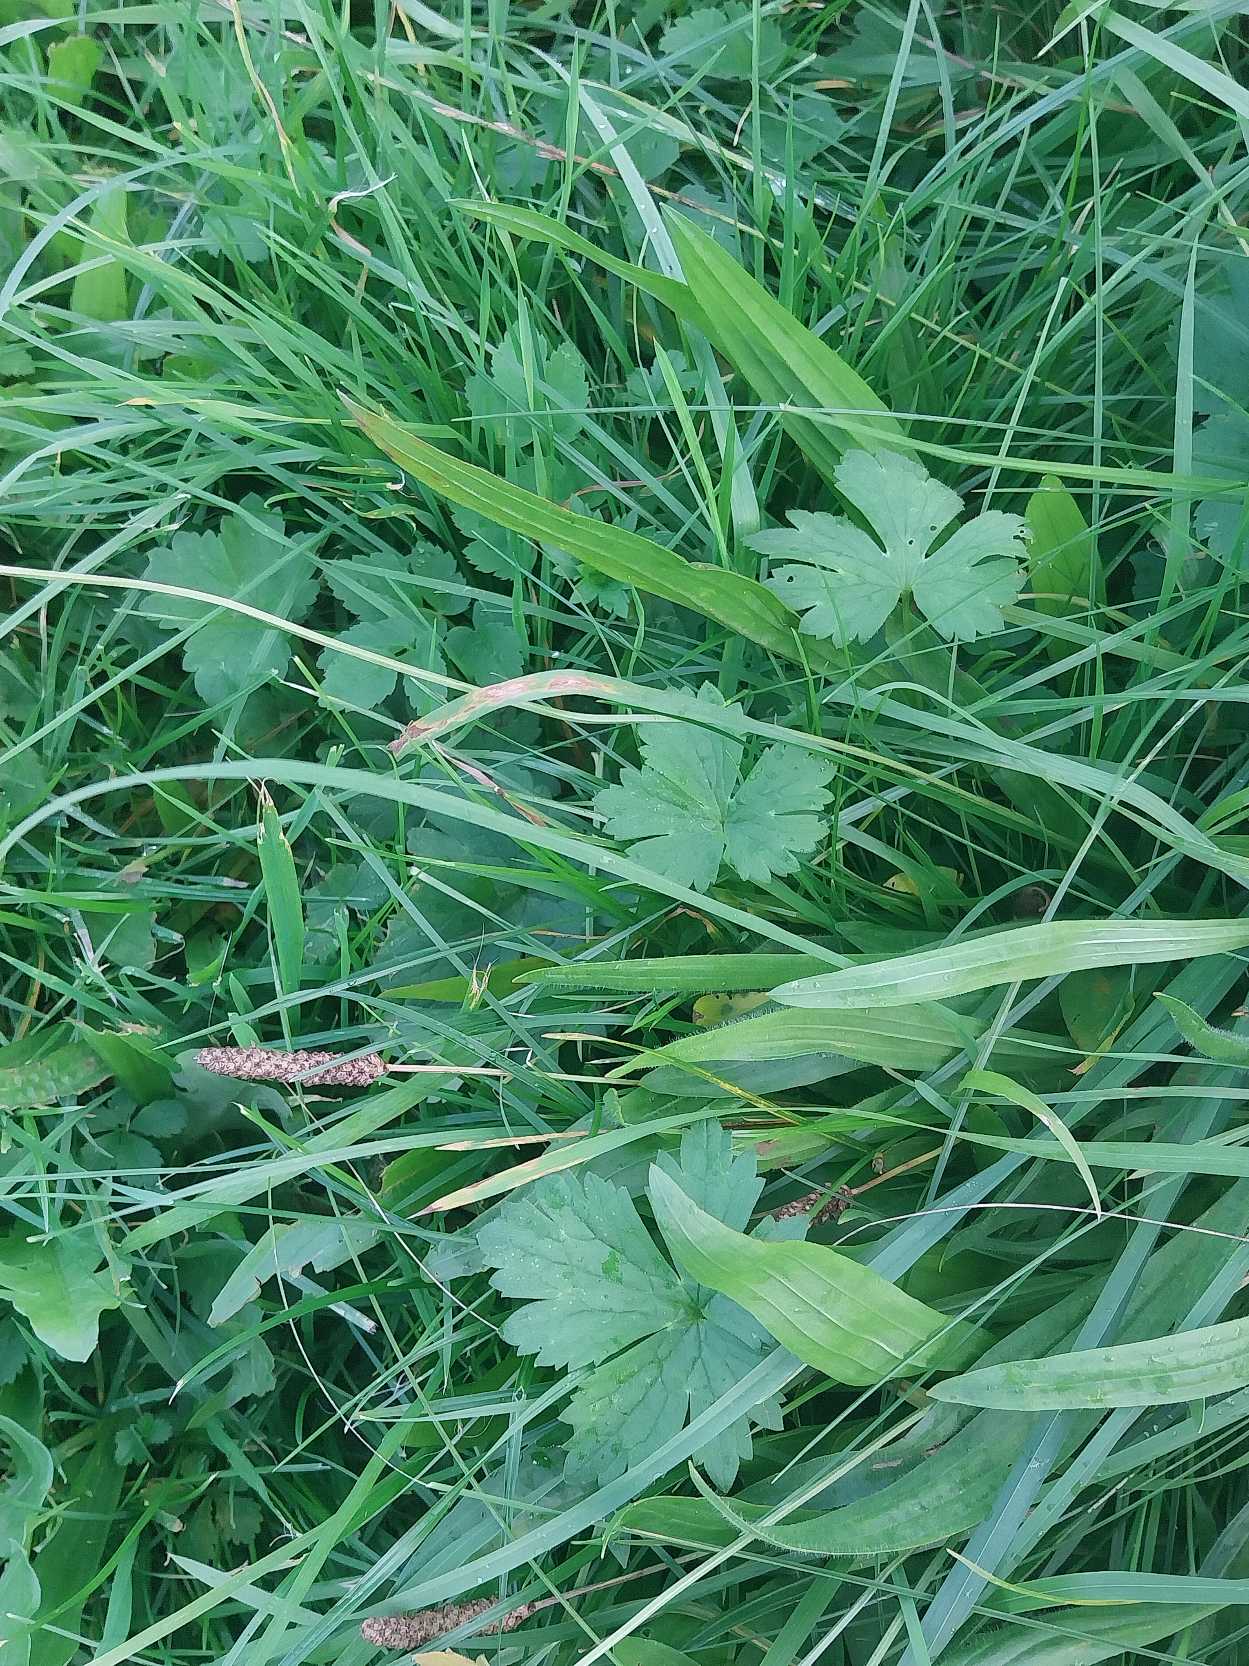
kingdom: Plantae
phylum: Tracheophyta
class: Magnoliopsida
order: Ranunculales
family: Ranunculaceae
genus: Ranunculus
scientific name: Ranunculus acris
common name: Bidende ranunkel
